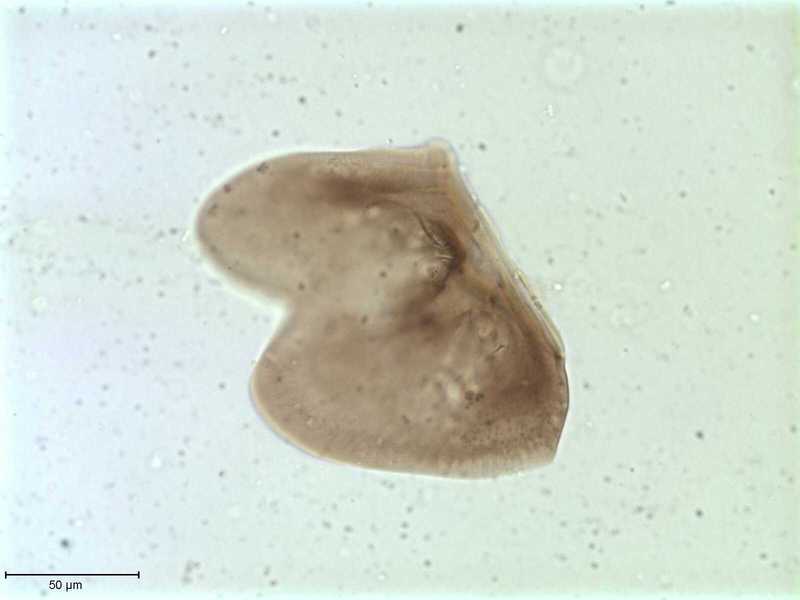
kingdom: Animalia
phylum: Arthropoda
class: Arachnida
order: Sarcoptiformes
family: Galumnidae
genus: Allogalumna
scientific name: Allogalumna exigua
